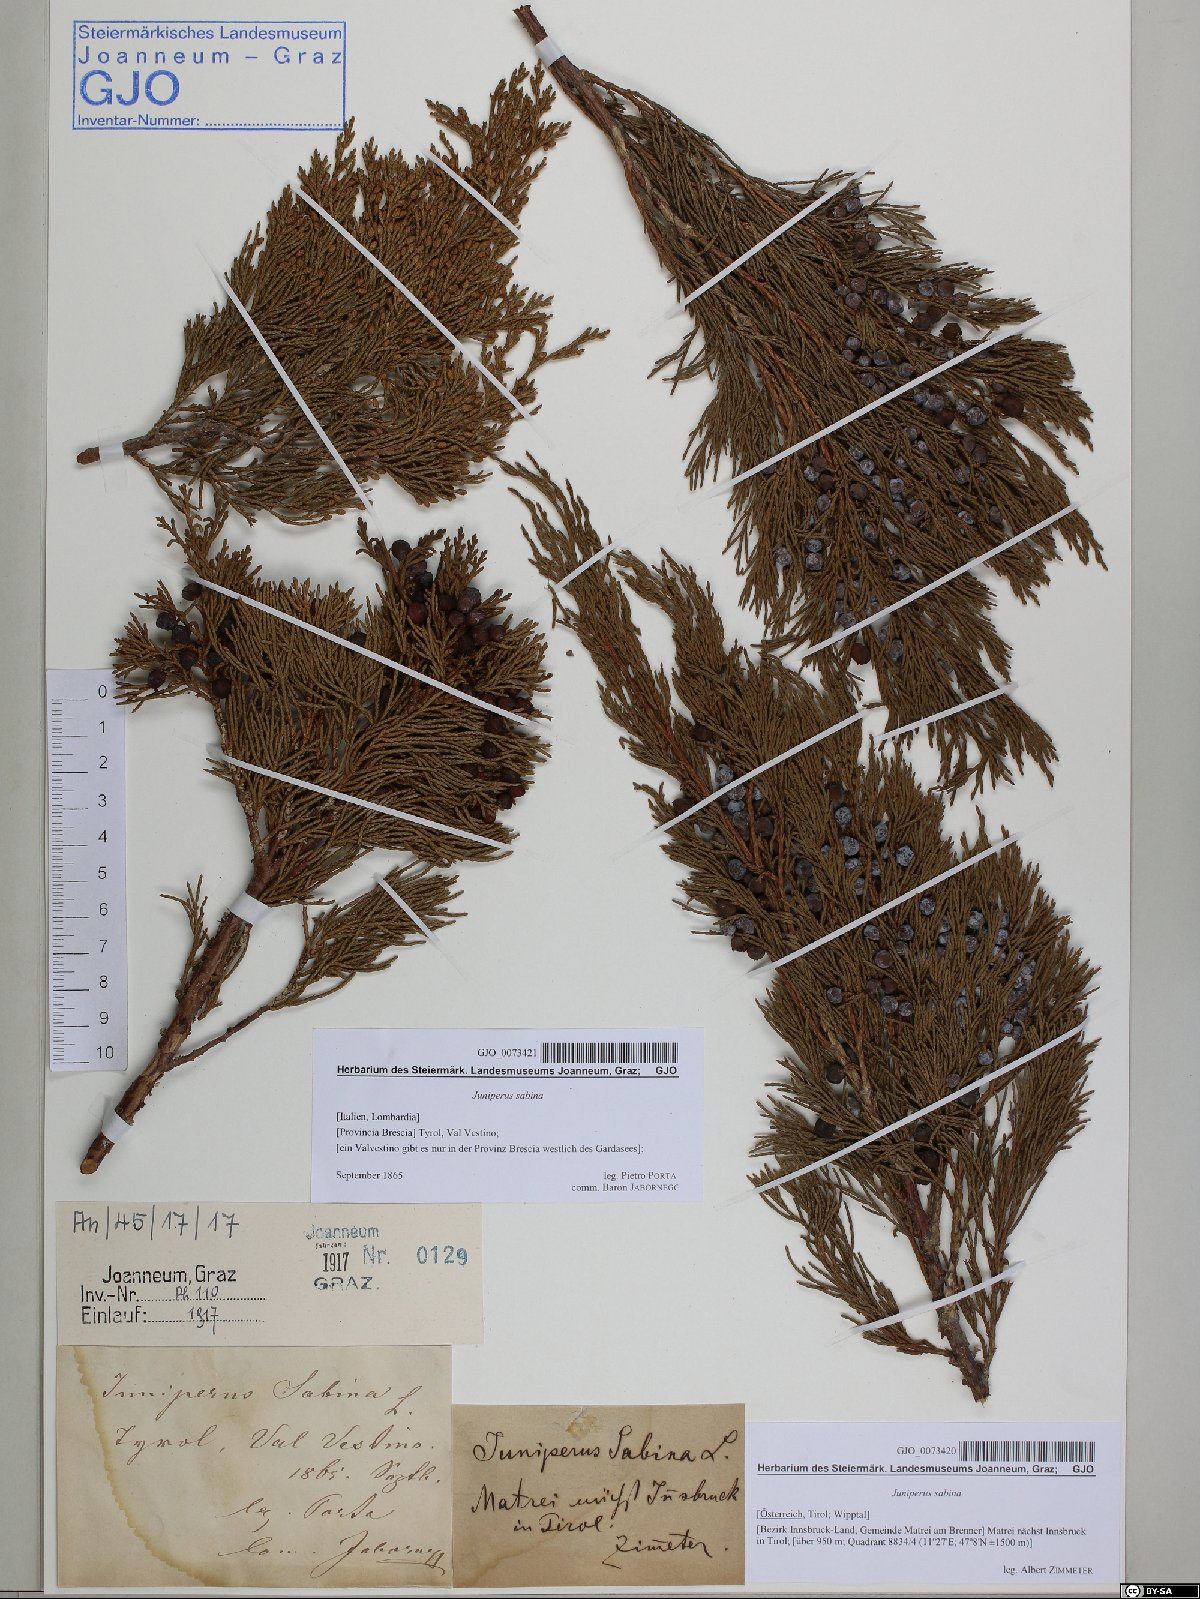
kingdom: Plantae
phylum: Tracheophyta
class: Pinopsida
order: Pinales
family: Cupressaceae
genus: Juniperus
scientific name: Juniperus sabina
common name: Savin
